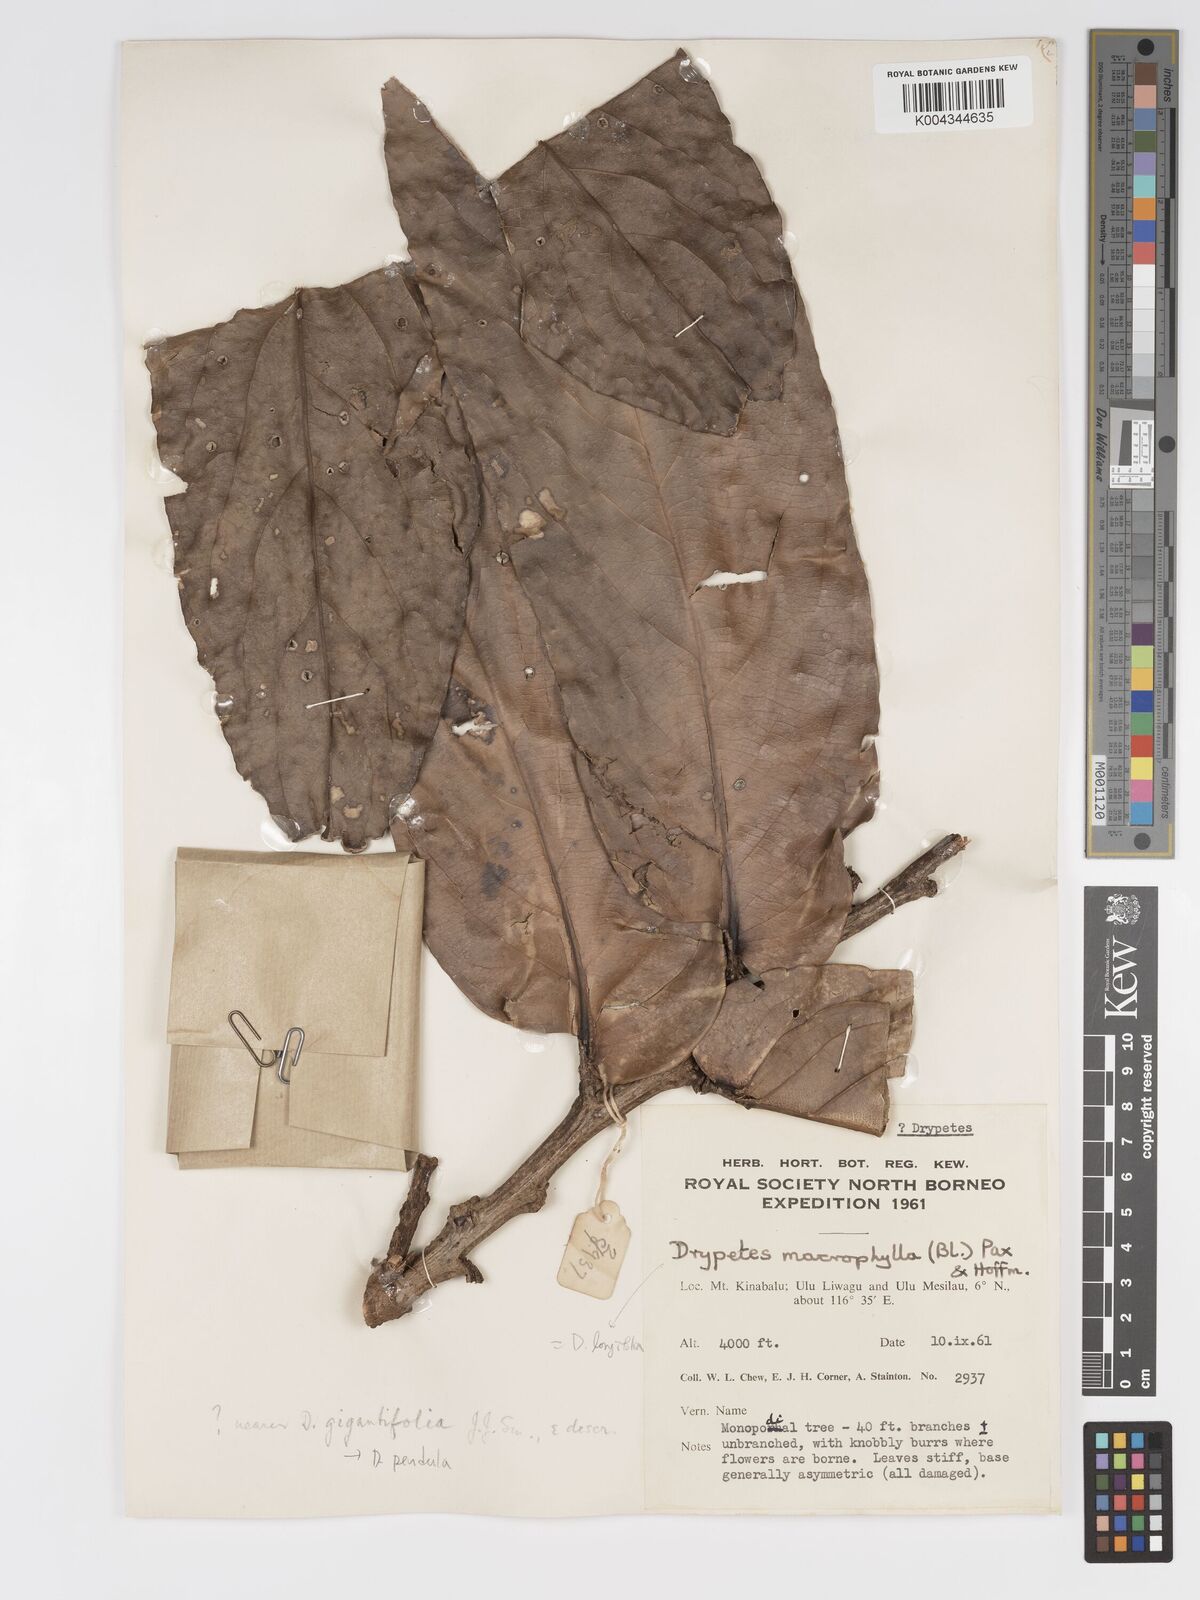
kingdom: Plantae
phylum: Tracheophyta
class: Magnoliopsida
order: Malpighiales
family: Putranjivaceae
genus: Drypetes
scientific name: Drypetes longifolia
